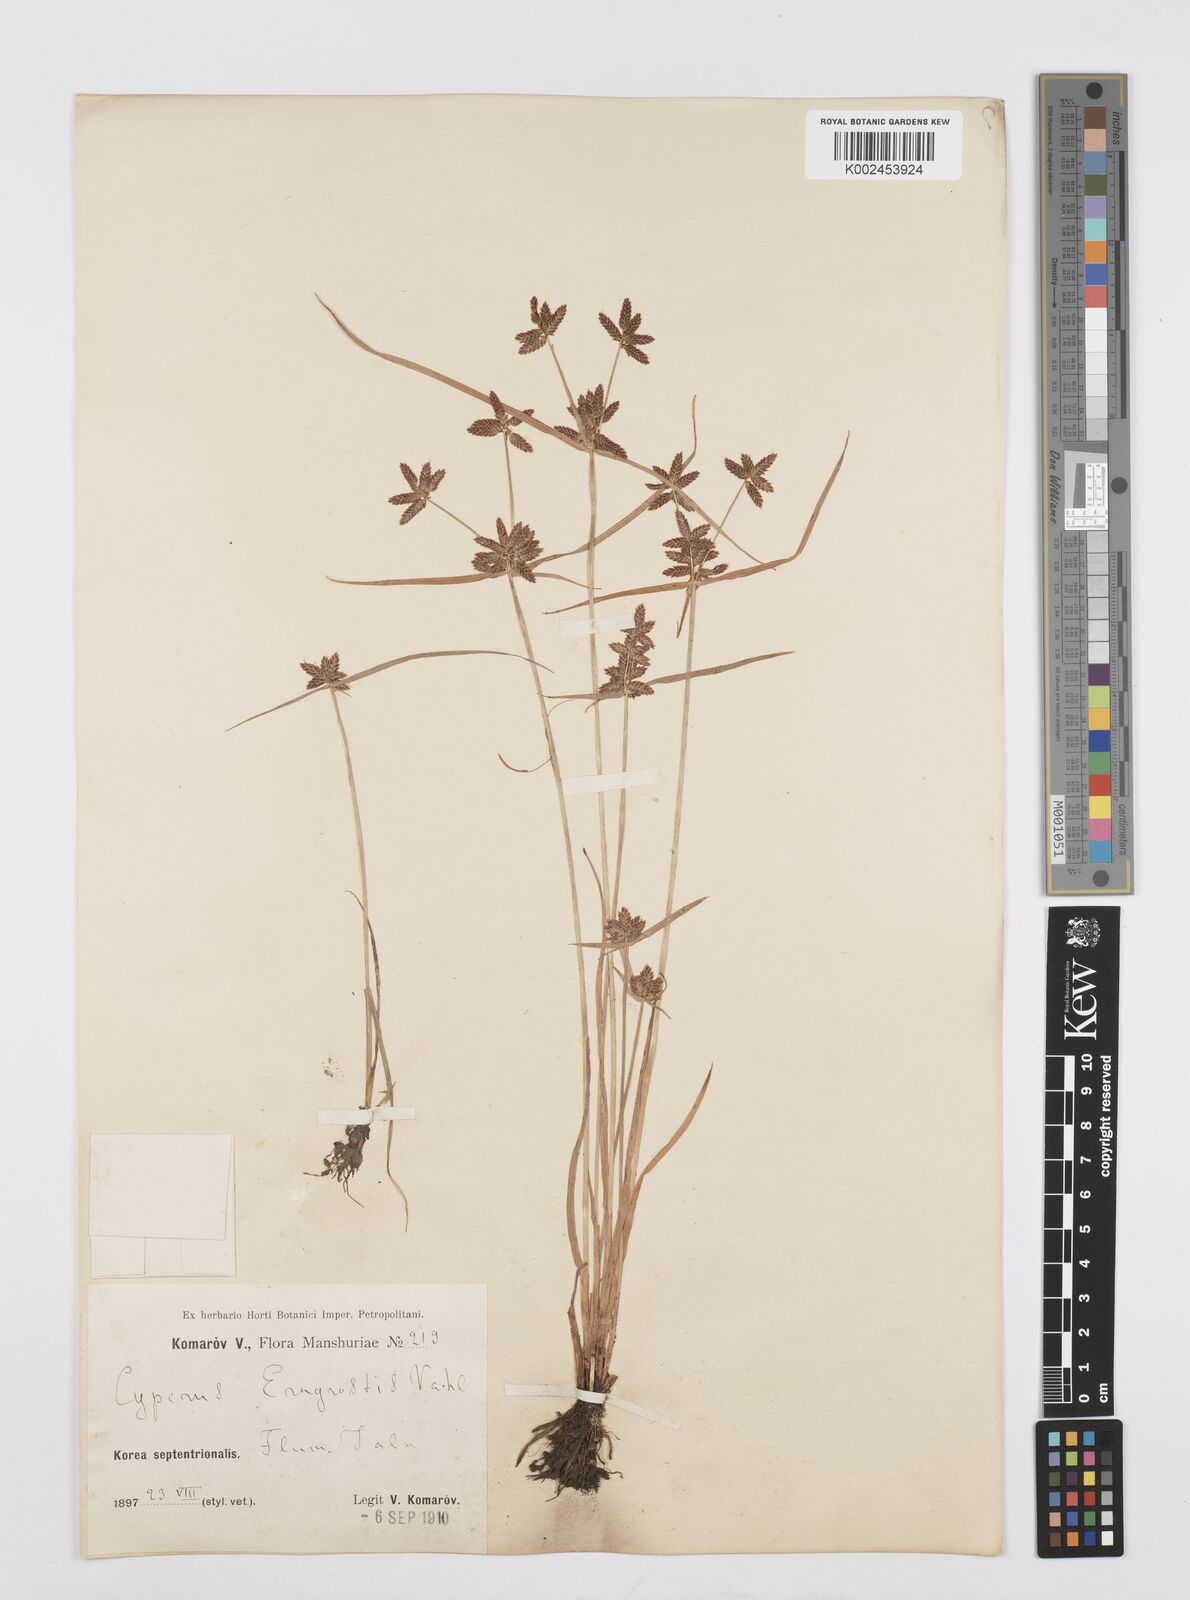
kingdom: Plantae
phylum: Tracheophyta
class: Liliopsida
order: Poales
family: Cyperaceae
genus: Cyperus
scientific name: Cyperus sanguinolentus
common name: Purpleglume flatsedge
